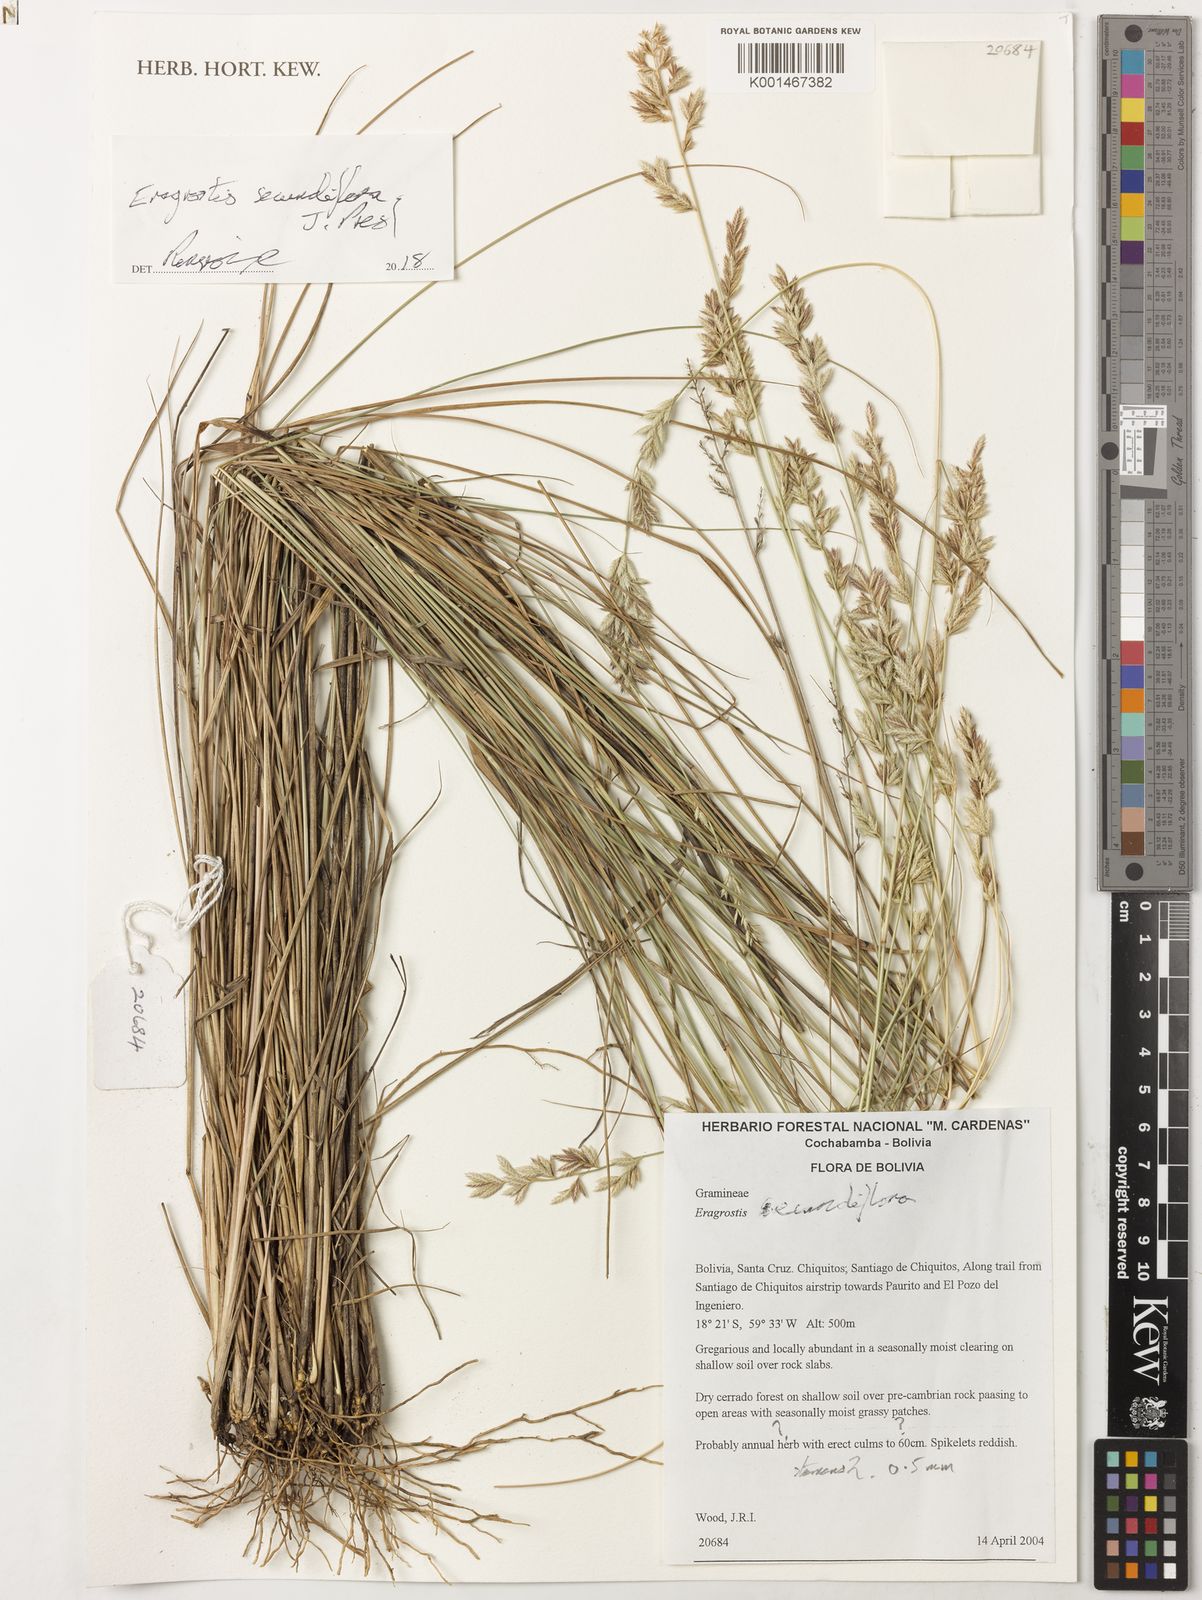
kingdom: Plantae
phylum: Tracheophyta
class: Liliopsida
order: Poales
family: Poaceae
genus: Eragrostis
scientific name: Eragrostis secundiflora
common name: Red love grass
